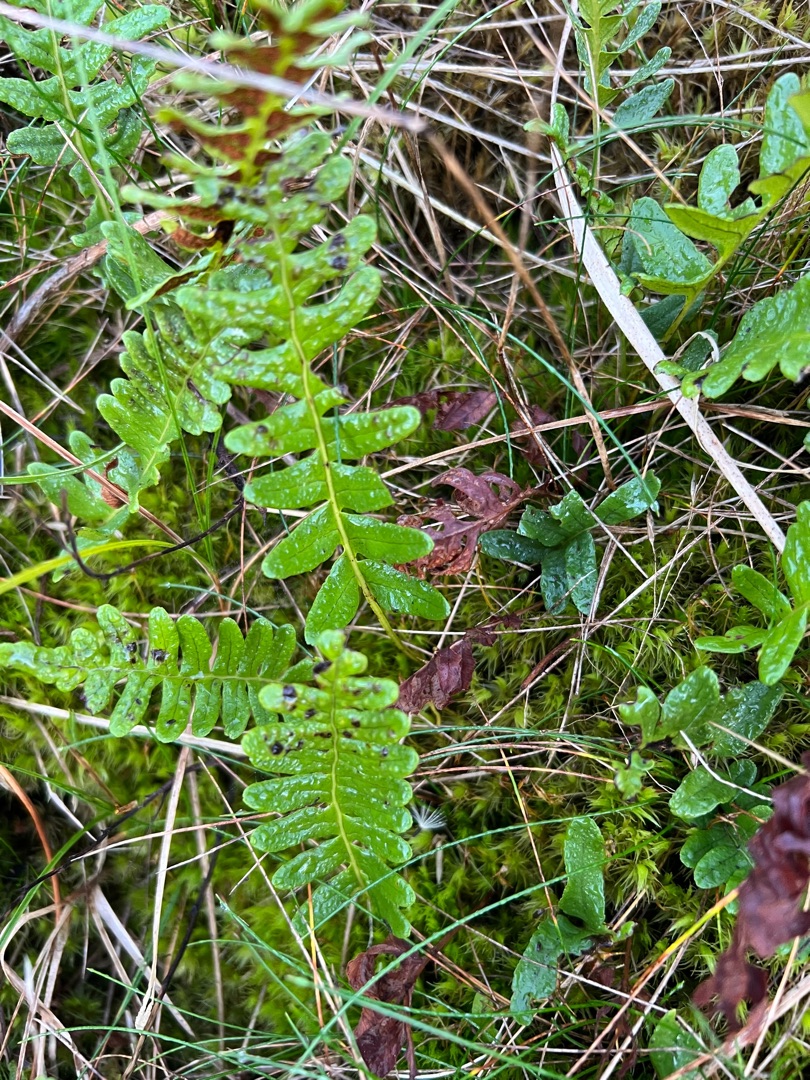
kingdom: Plantae
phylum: Tracheophyta
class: Polypodiopsida
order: Polypodiales
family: Polypodiaceae
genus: Polypodium
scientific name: Polypodium vulgare
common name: Almindelig engelsød
